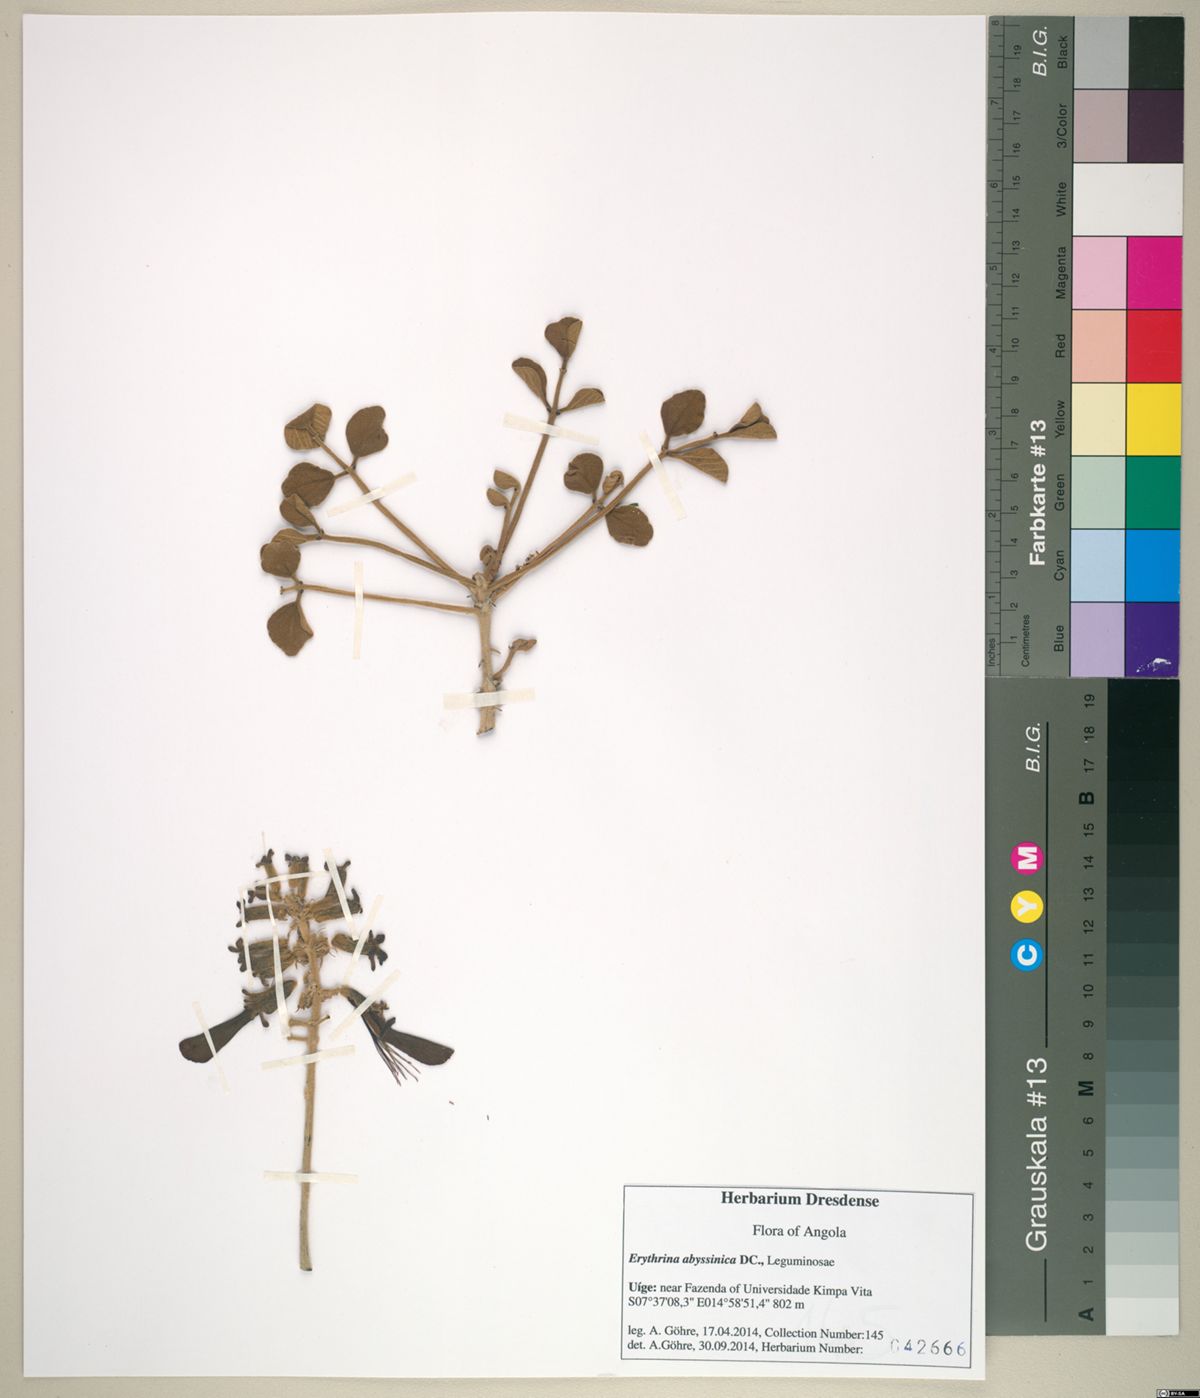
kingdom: Plantae
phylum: Tracheophyta
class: Magnoliopsida
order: Fabales
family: Fabaceae
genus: Erythrina
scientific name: Erythrina abyssinica
